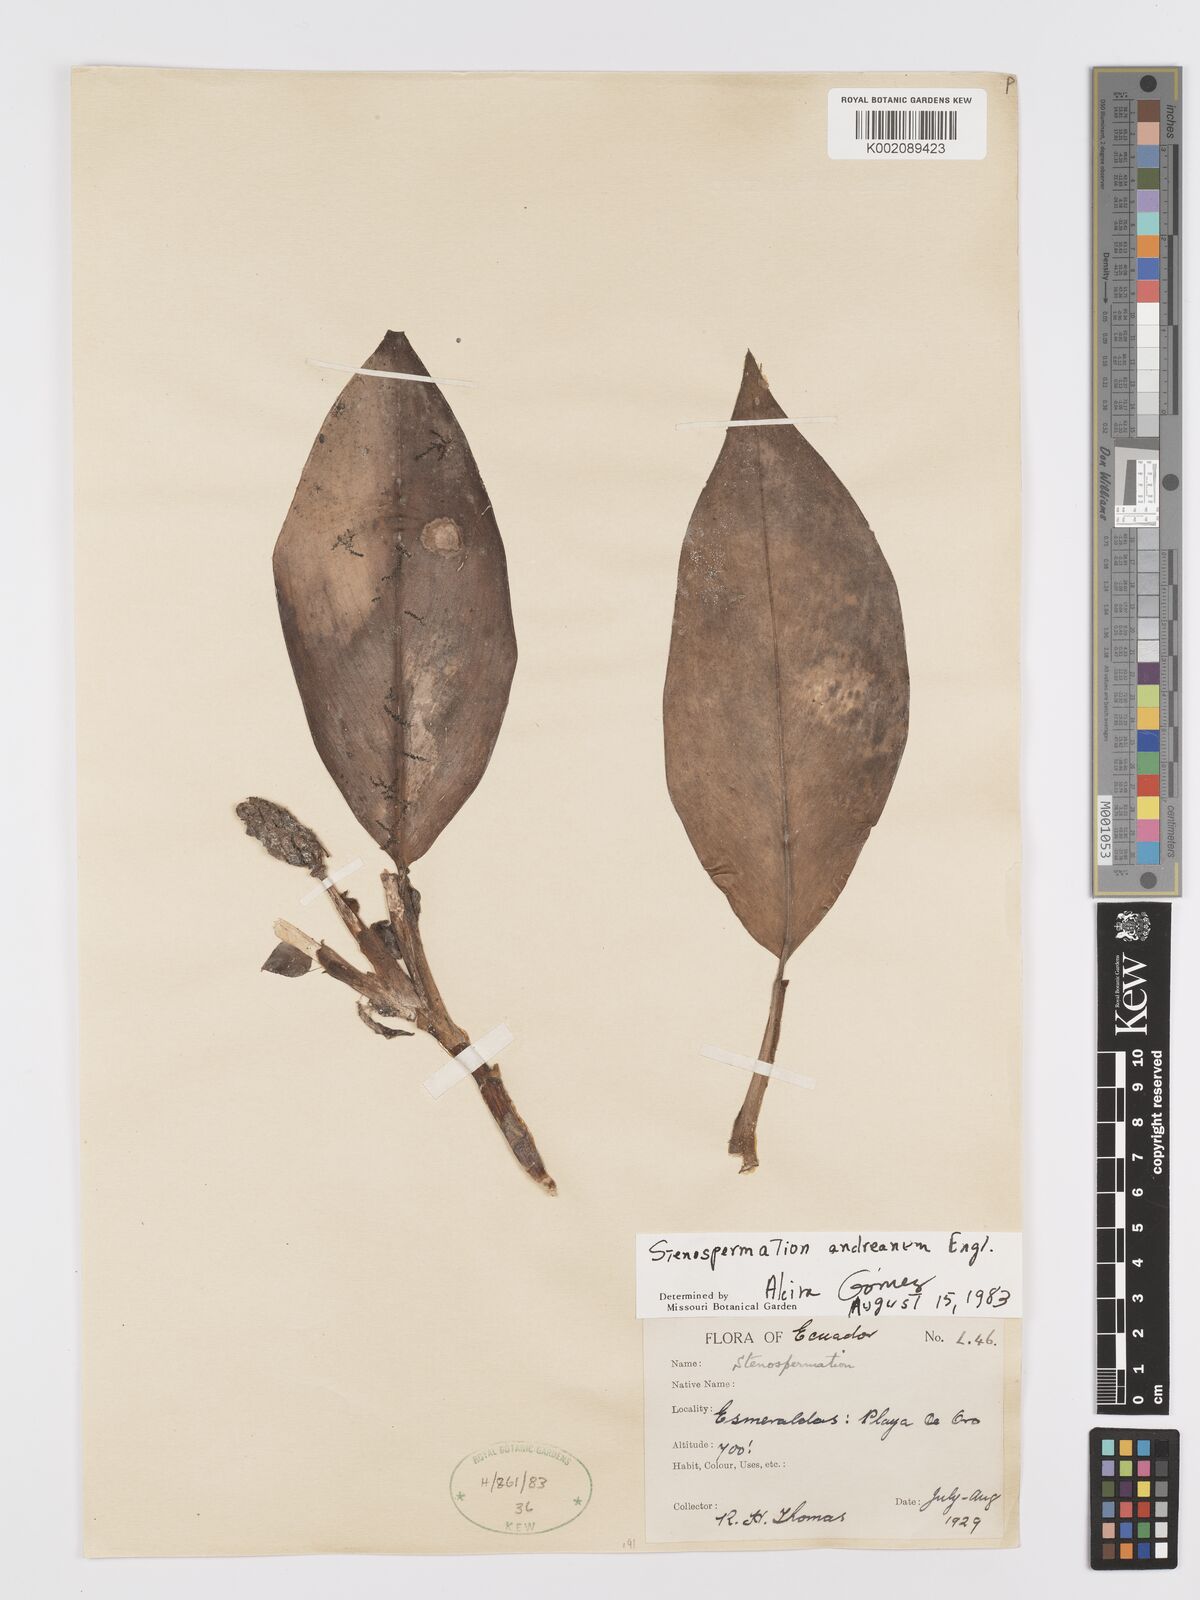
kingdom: Plantae
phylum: Tracheophyta
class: Liliopsida
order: Alismatales
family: Araceae
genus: Stenospermation
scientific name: Stenospermation andreanum
